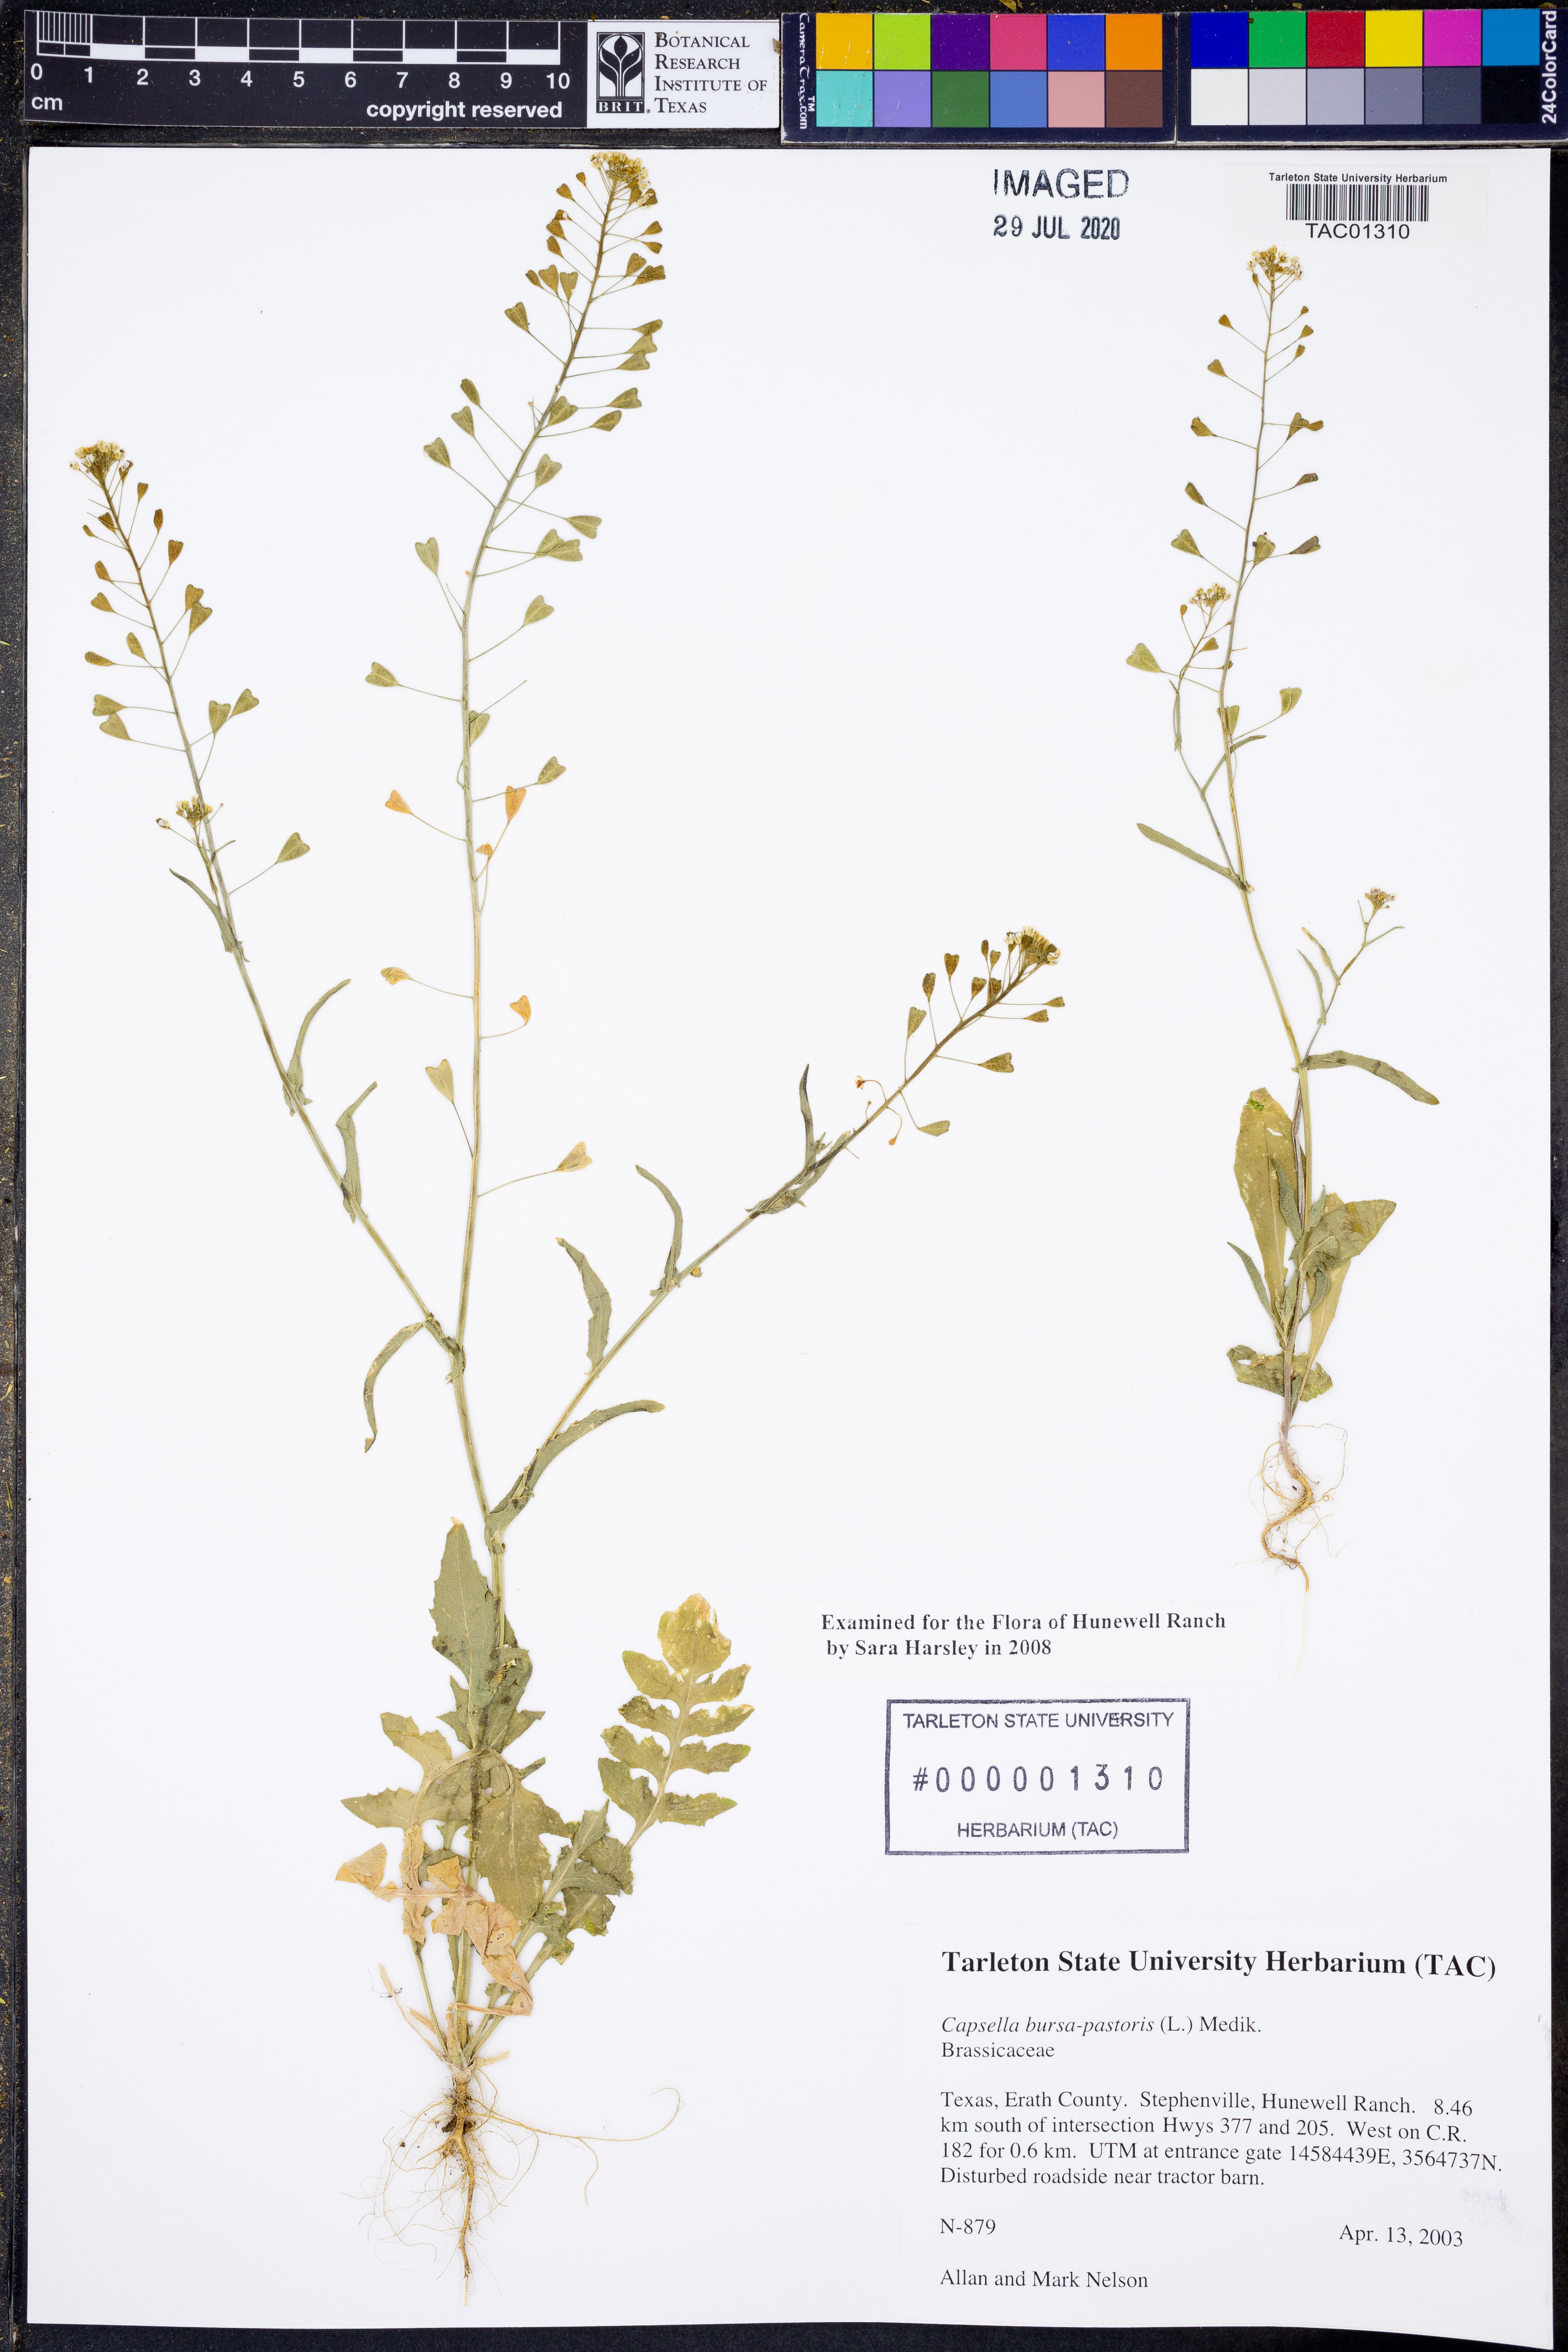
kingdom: Plantae
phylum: Tracheophyta
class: Magnoliopsida
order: Brassicales
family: Brassicaceae
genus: Capsella
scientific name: Capsella bursa-pastoris
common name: Shepherd's purse
